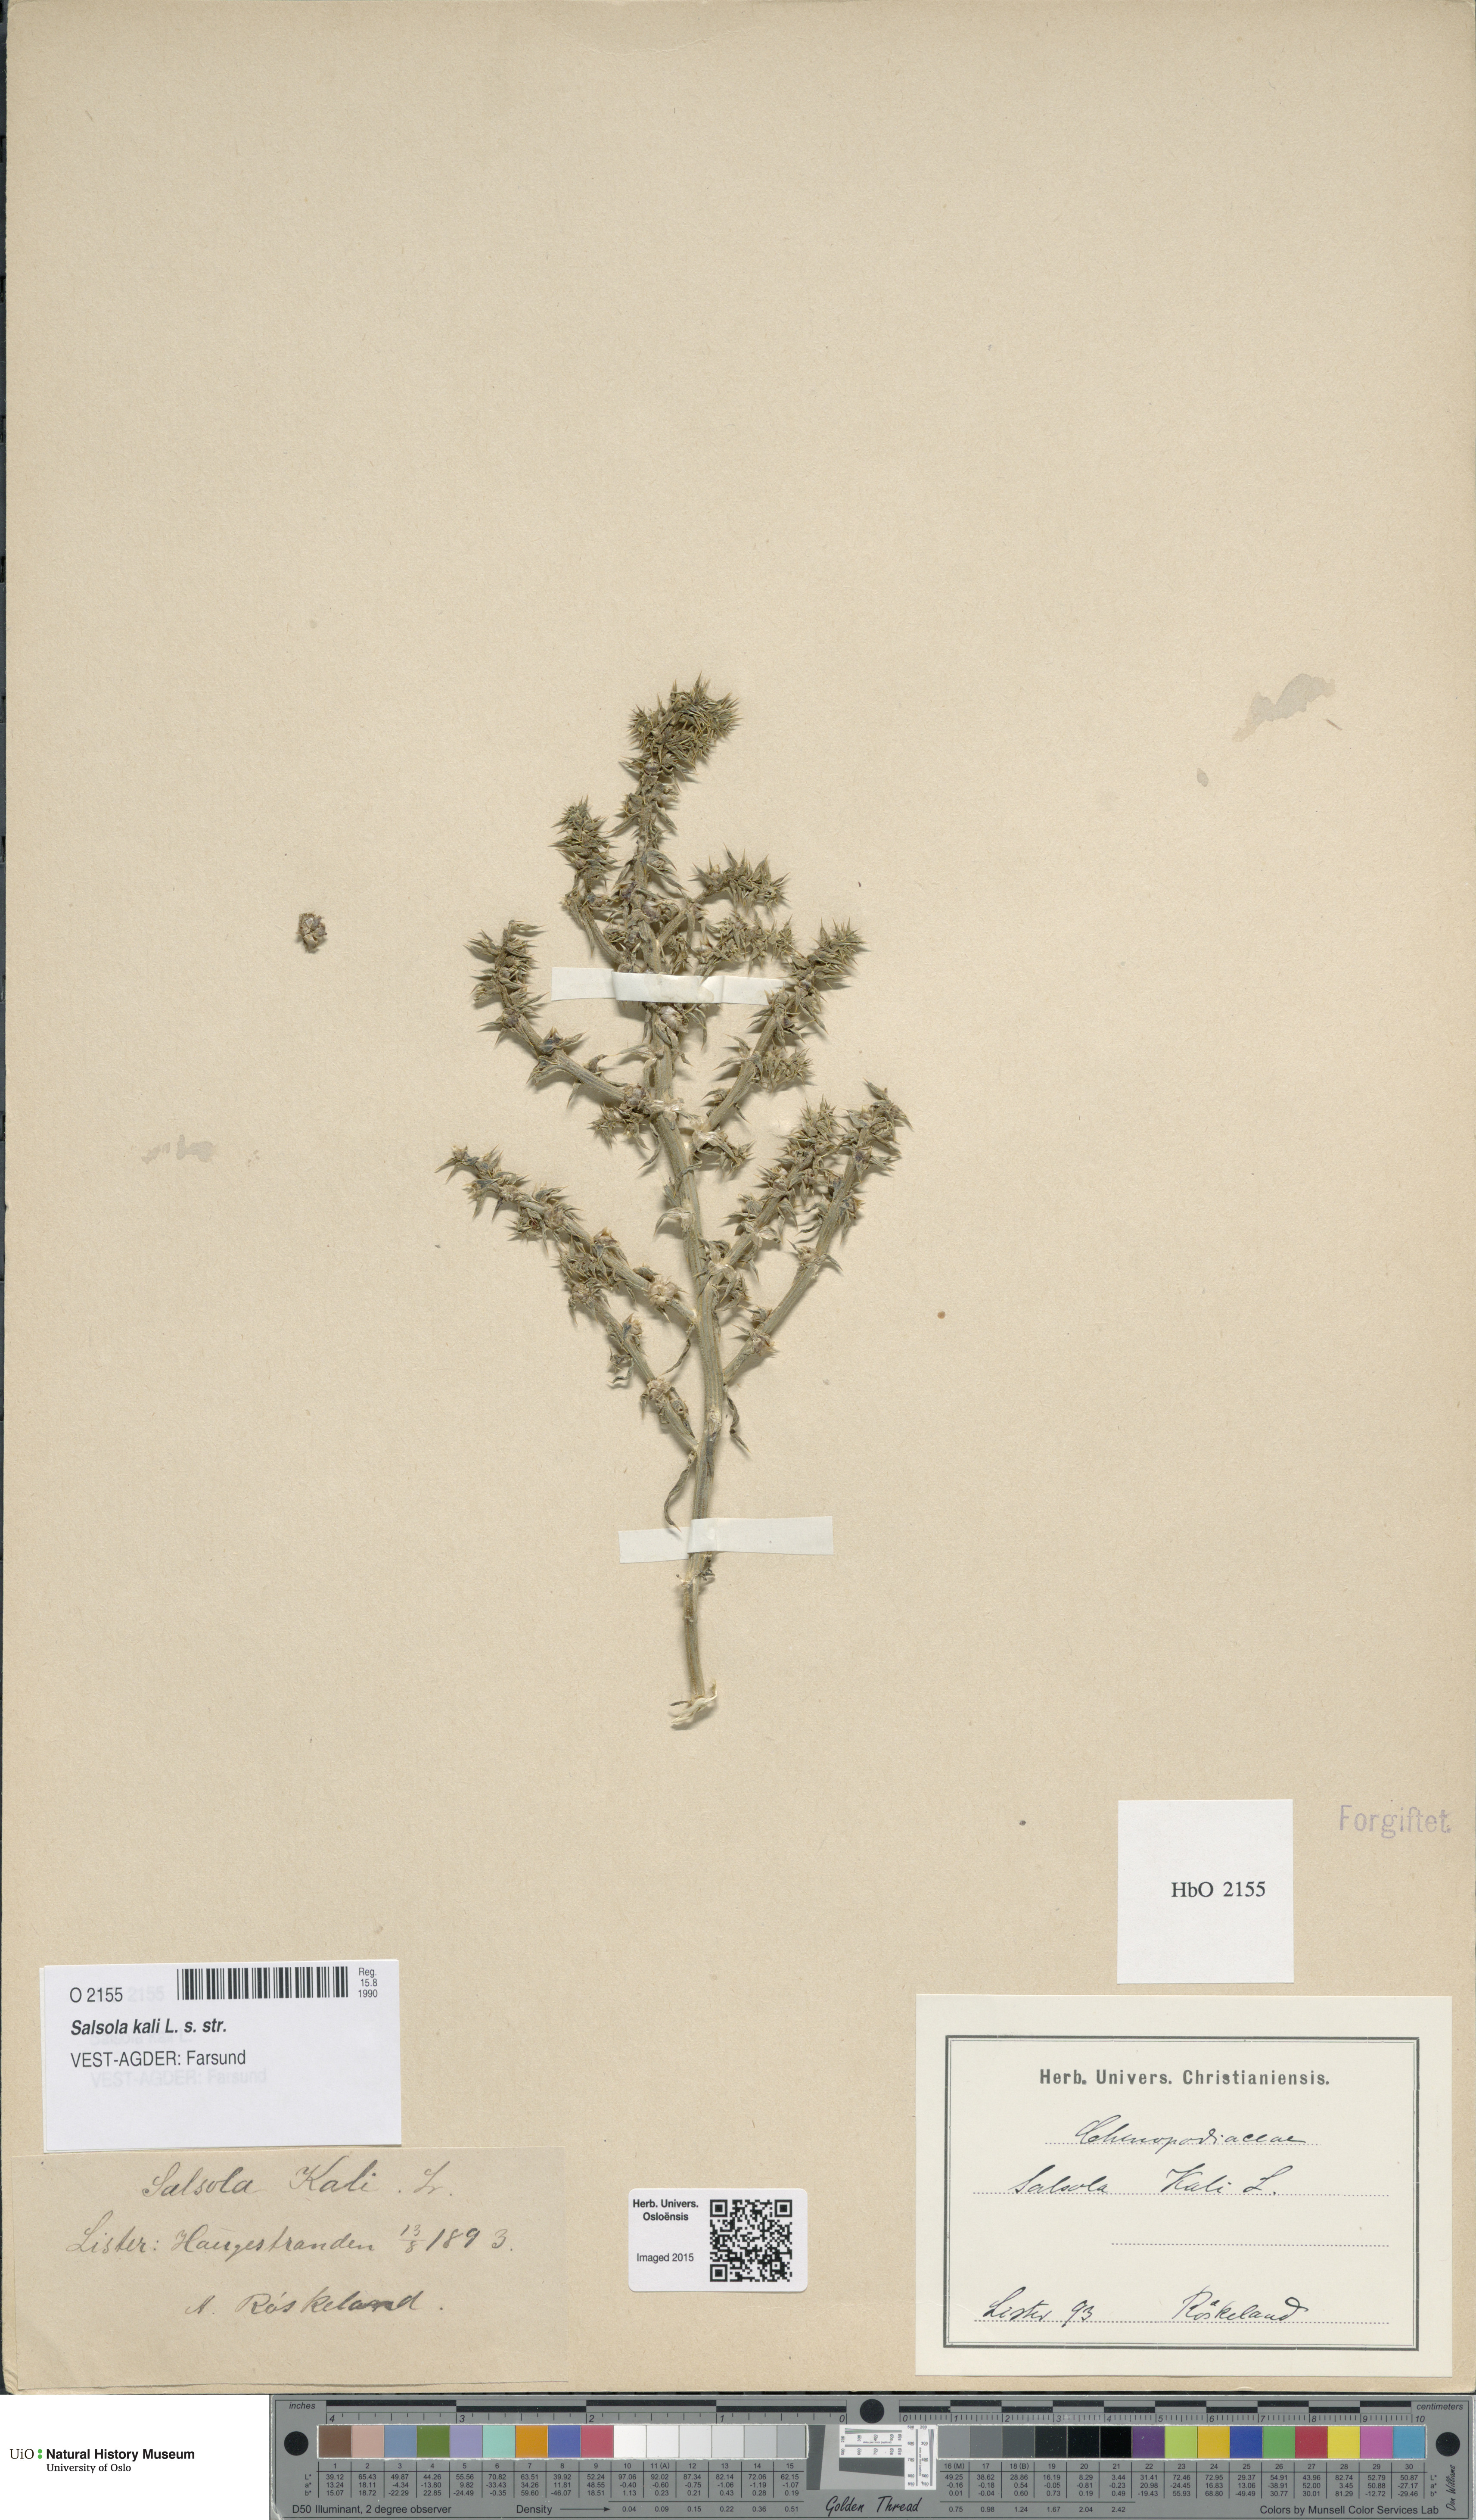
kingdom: Plantae
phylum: Tracheophyta
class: Magnoliopsida
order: Caryophyllales
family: Amaranthaceae
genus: Salsola
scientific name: Salsola kali
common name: Saltwort
